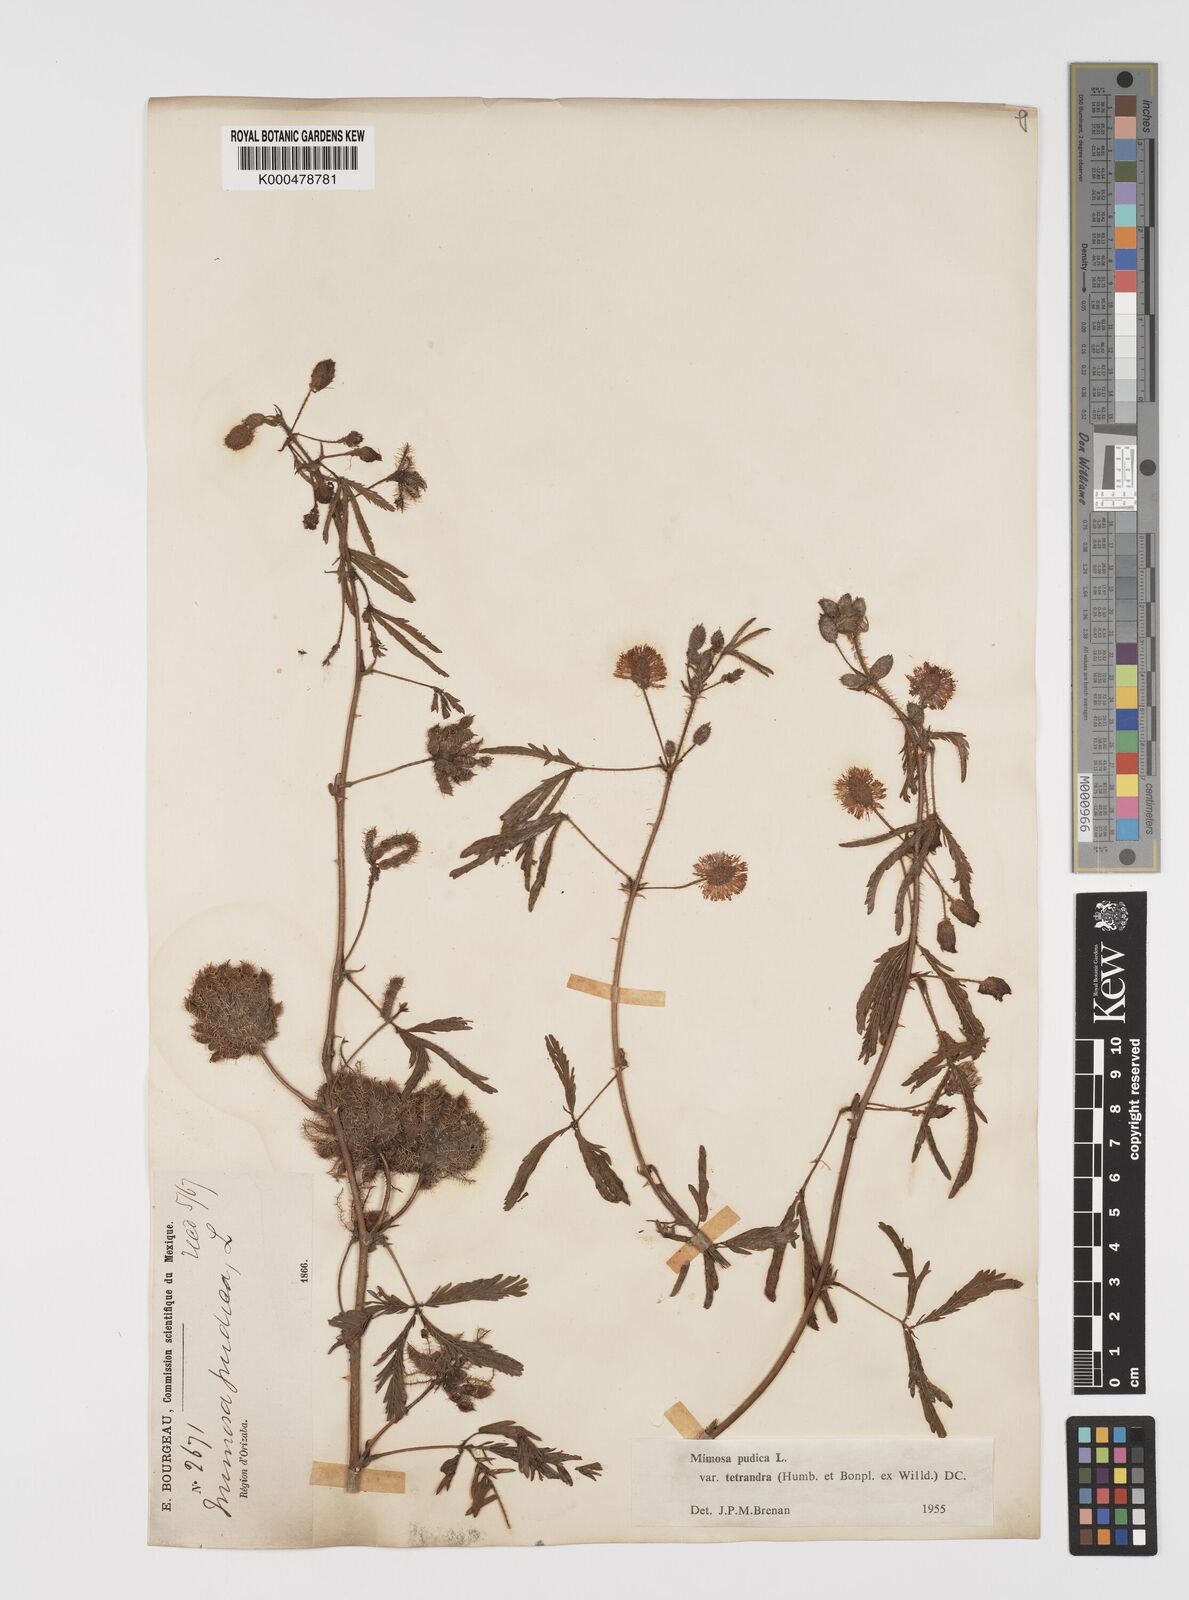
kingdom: Plantae
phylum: Tracheophyta
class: Magnoliopsida
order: Fabales
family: Fabaceae
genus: Mimosa
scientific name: Mimosa pudica
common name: Sensitive plant
